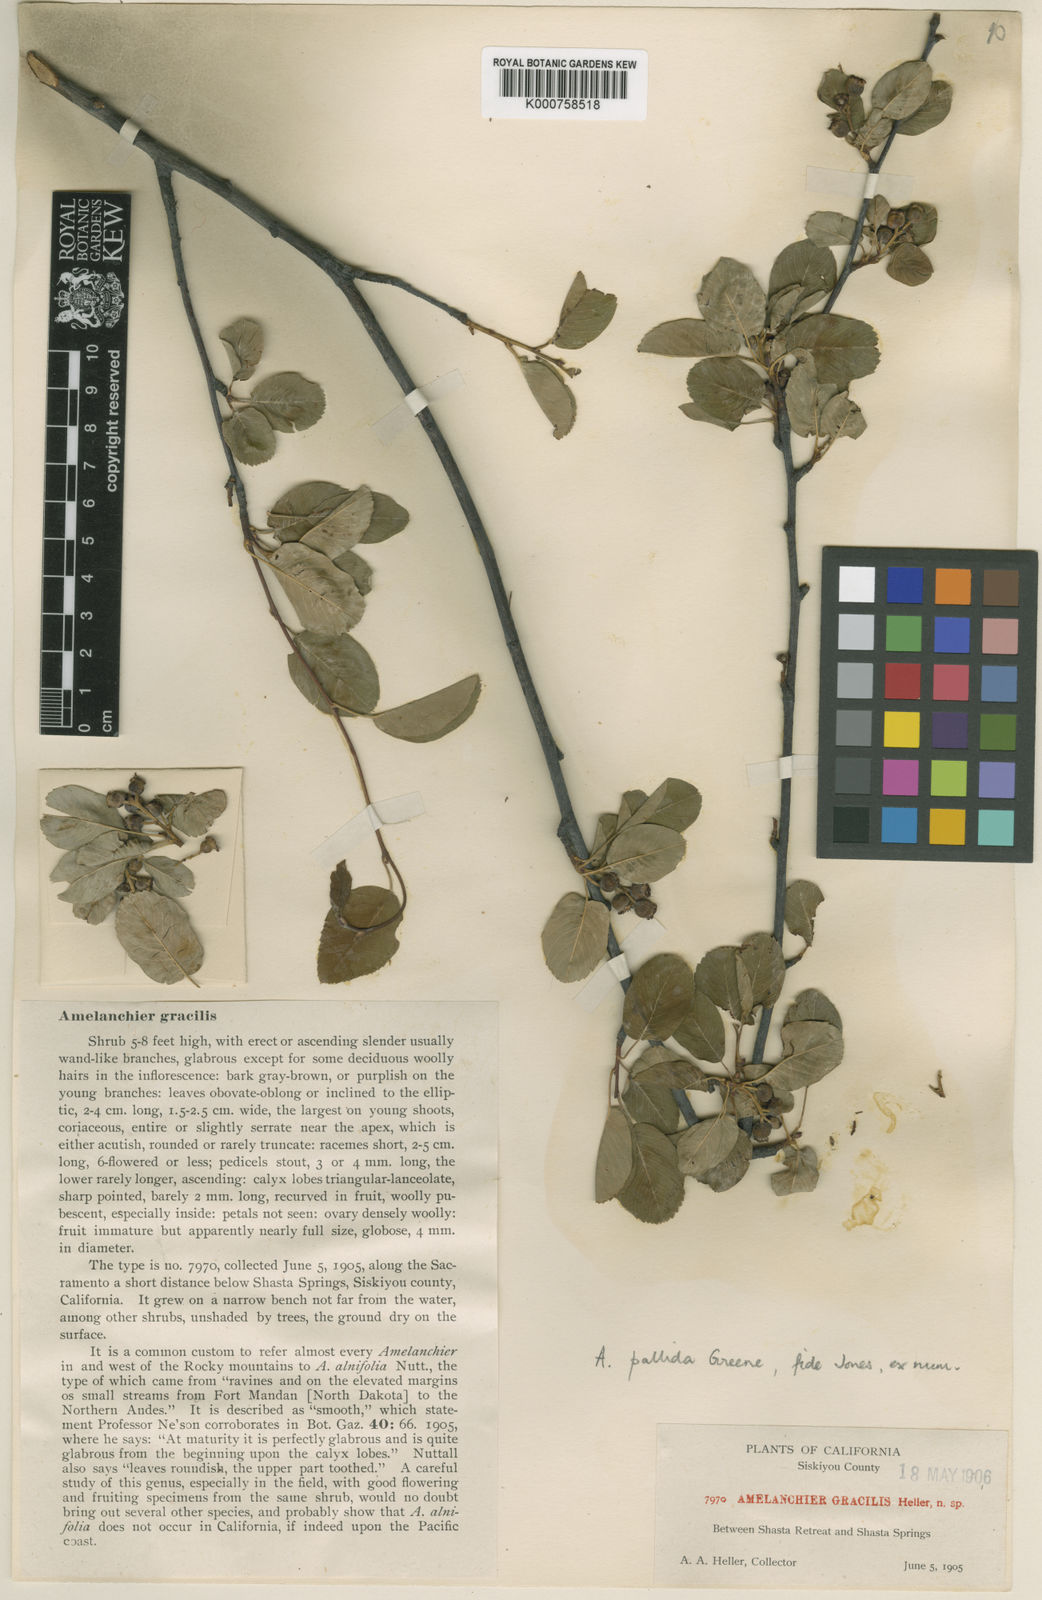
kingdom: Plantae
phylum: Tracheophyta
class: Magnoliopsida
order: Rosales
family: Rosaceae
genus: Amelanchier
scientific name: Amelanchier pallida
